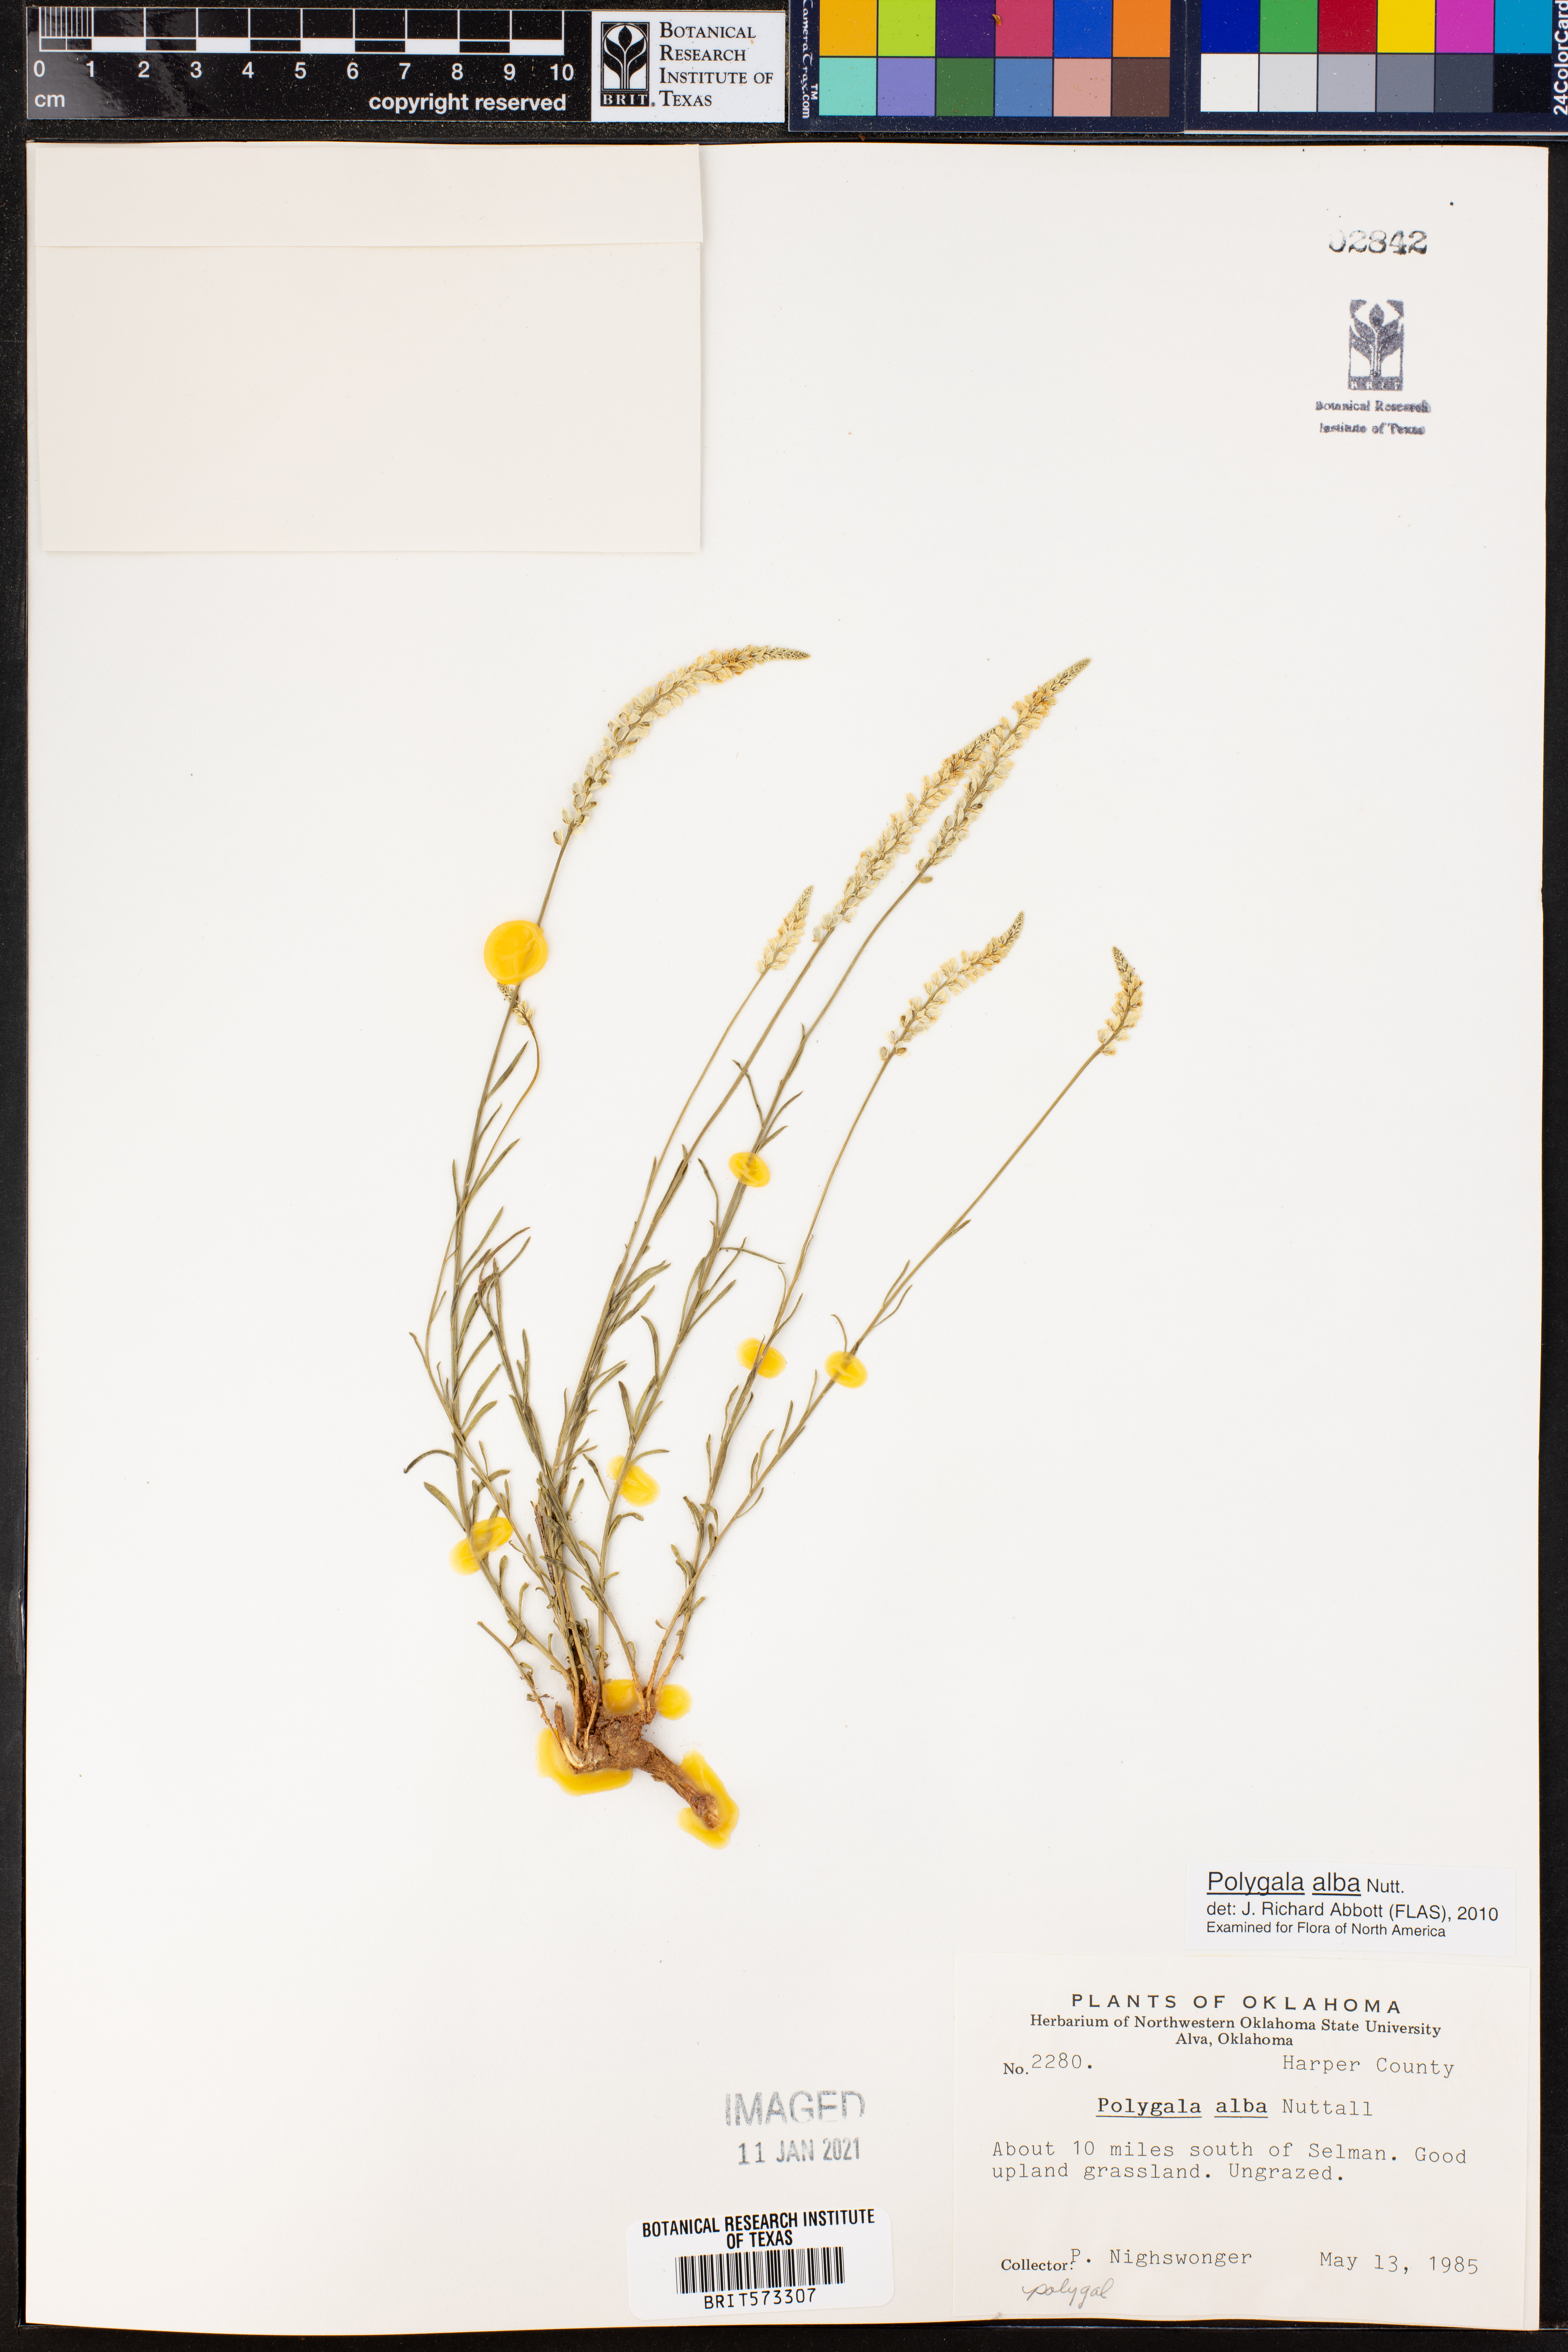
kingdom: Plantae
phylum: Tracheophyta
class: Magnoliopsida
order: Fabales
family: Polygalaceae
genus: Polygala
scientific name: Polygala alba
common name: White milkwort
